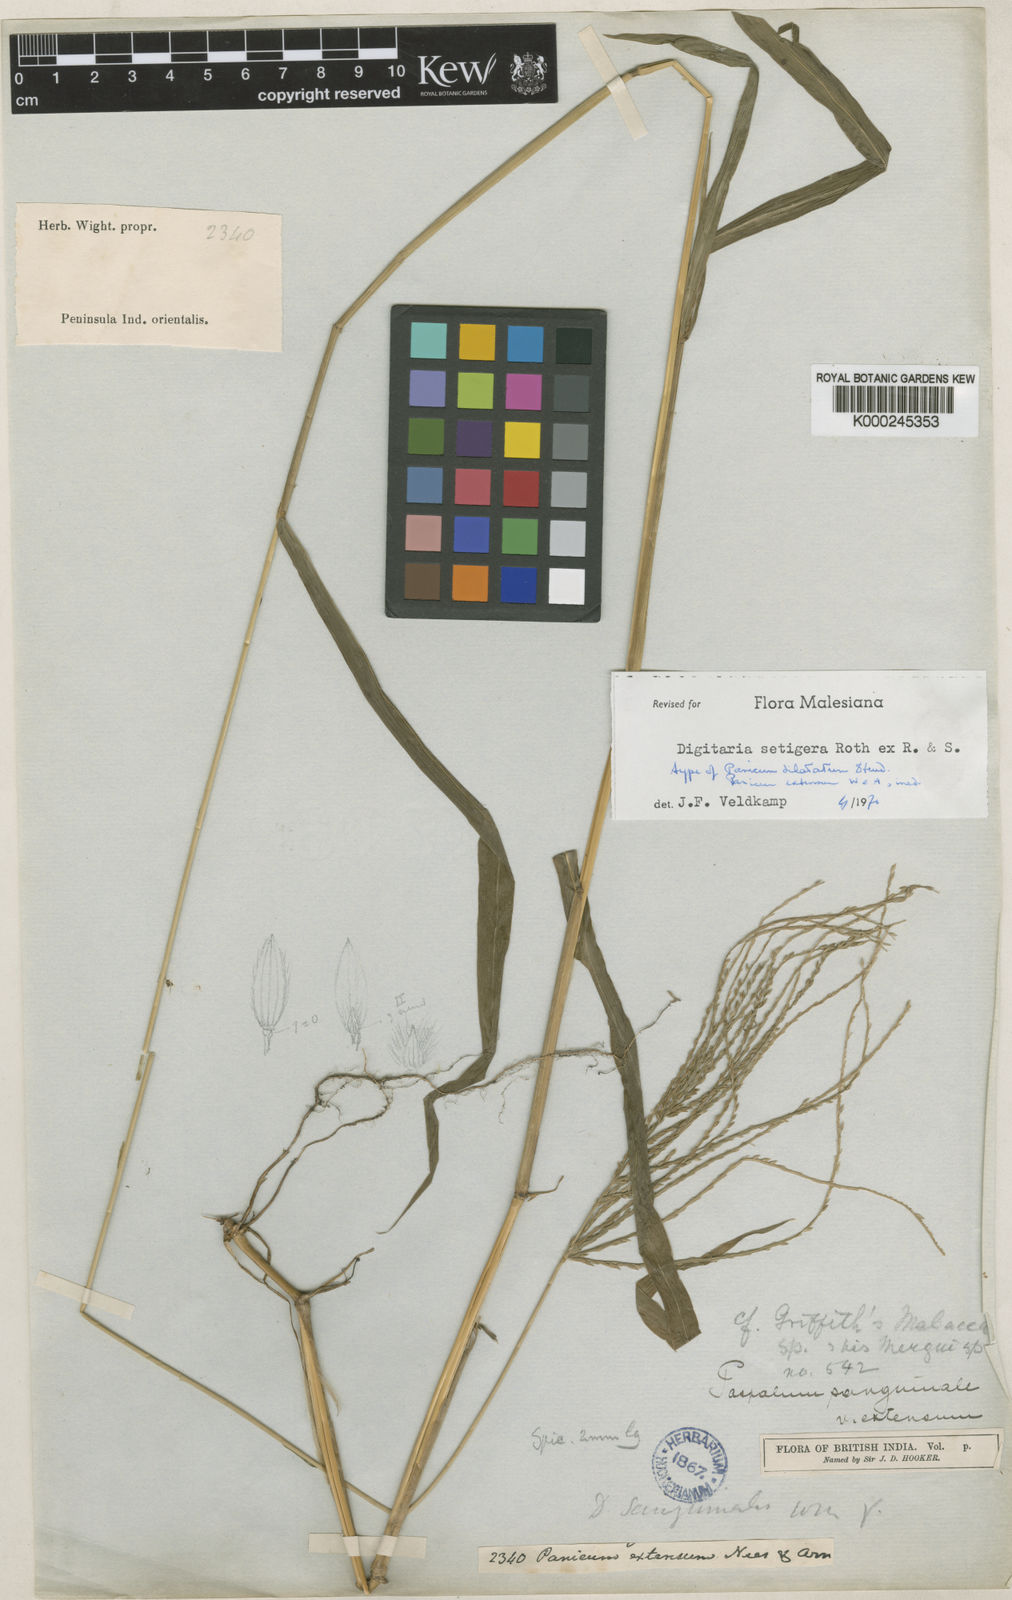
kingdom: Plantae
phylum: Tracheophyta
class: Liliopsida
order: Poales
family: Poaceae
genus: Digitaria
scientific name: Digitaria
